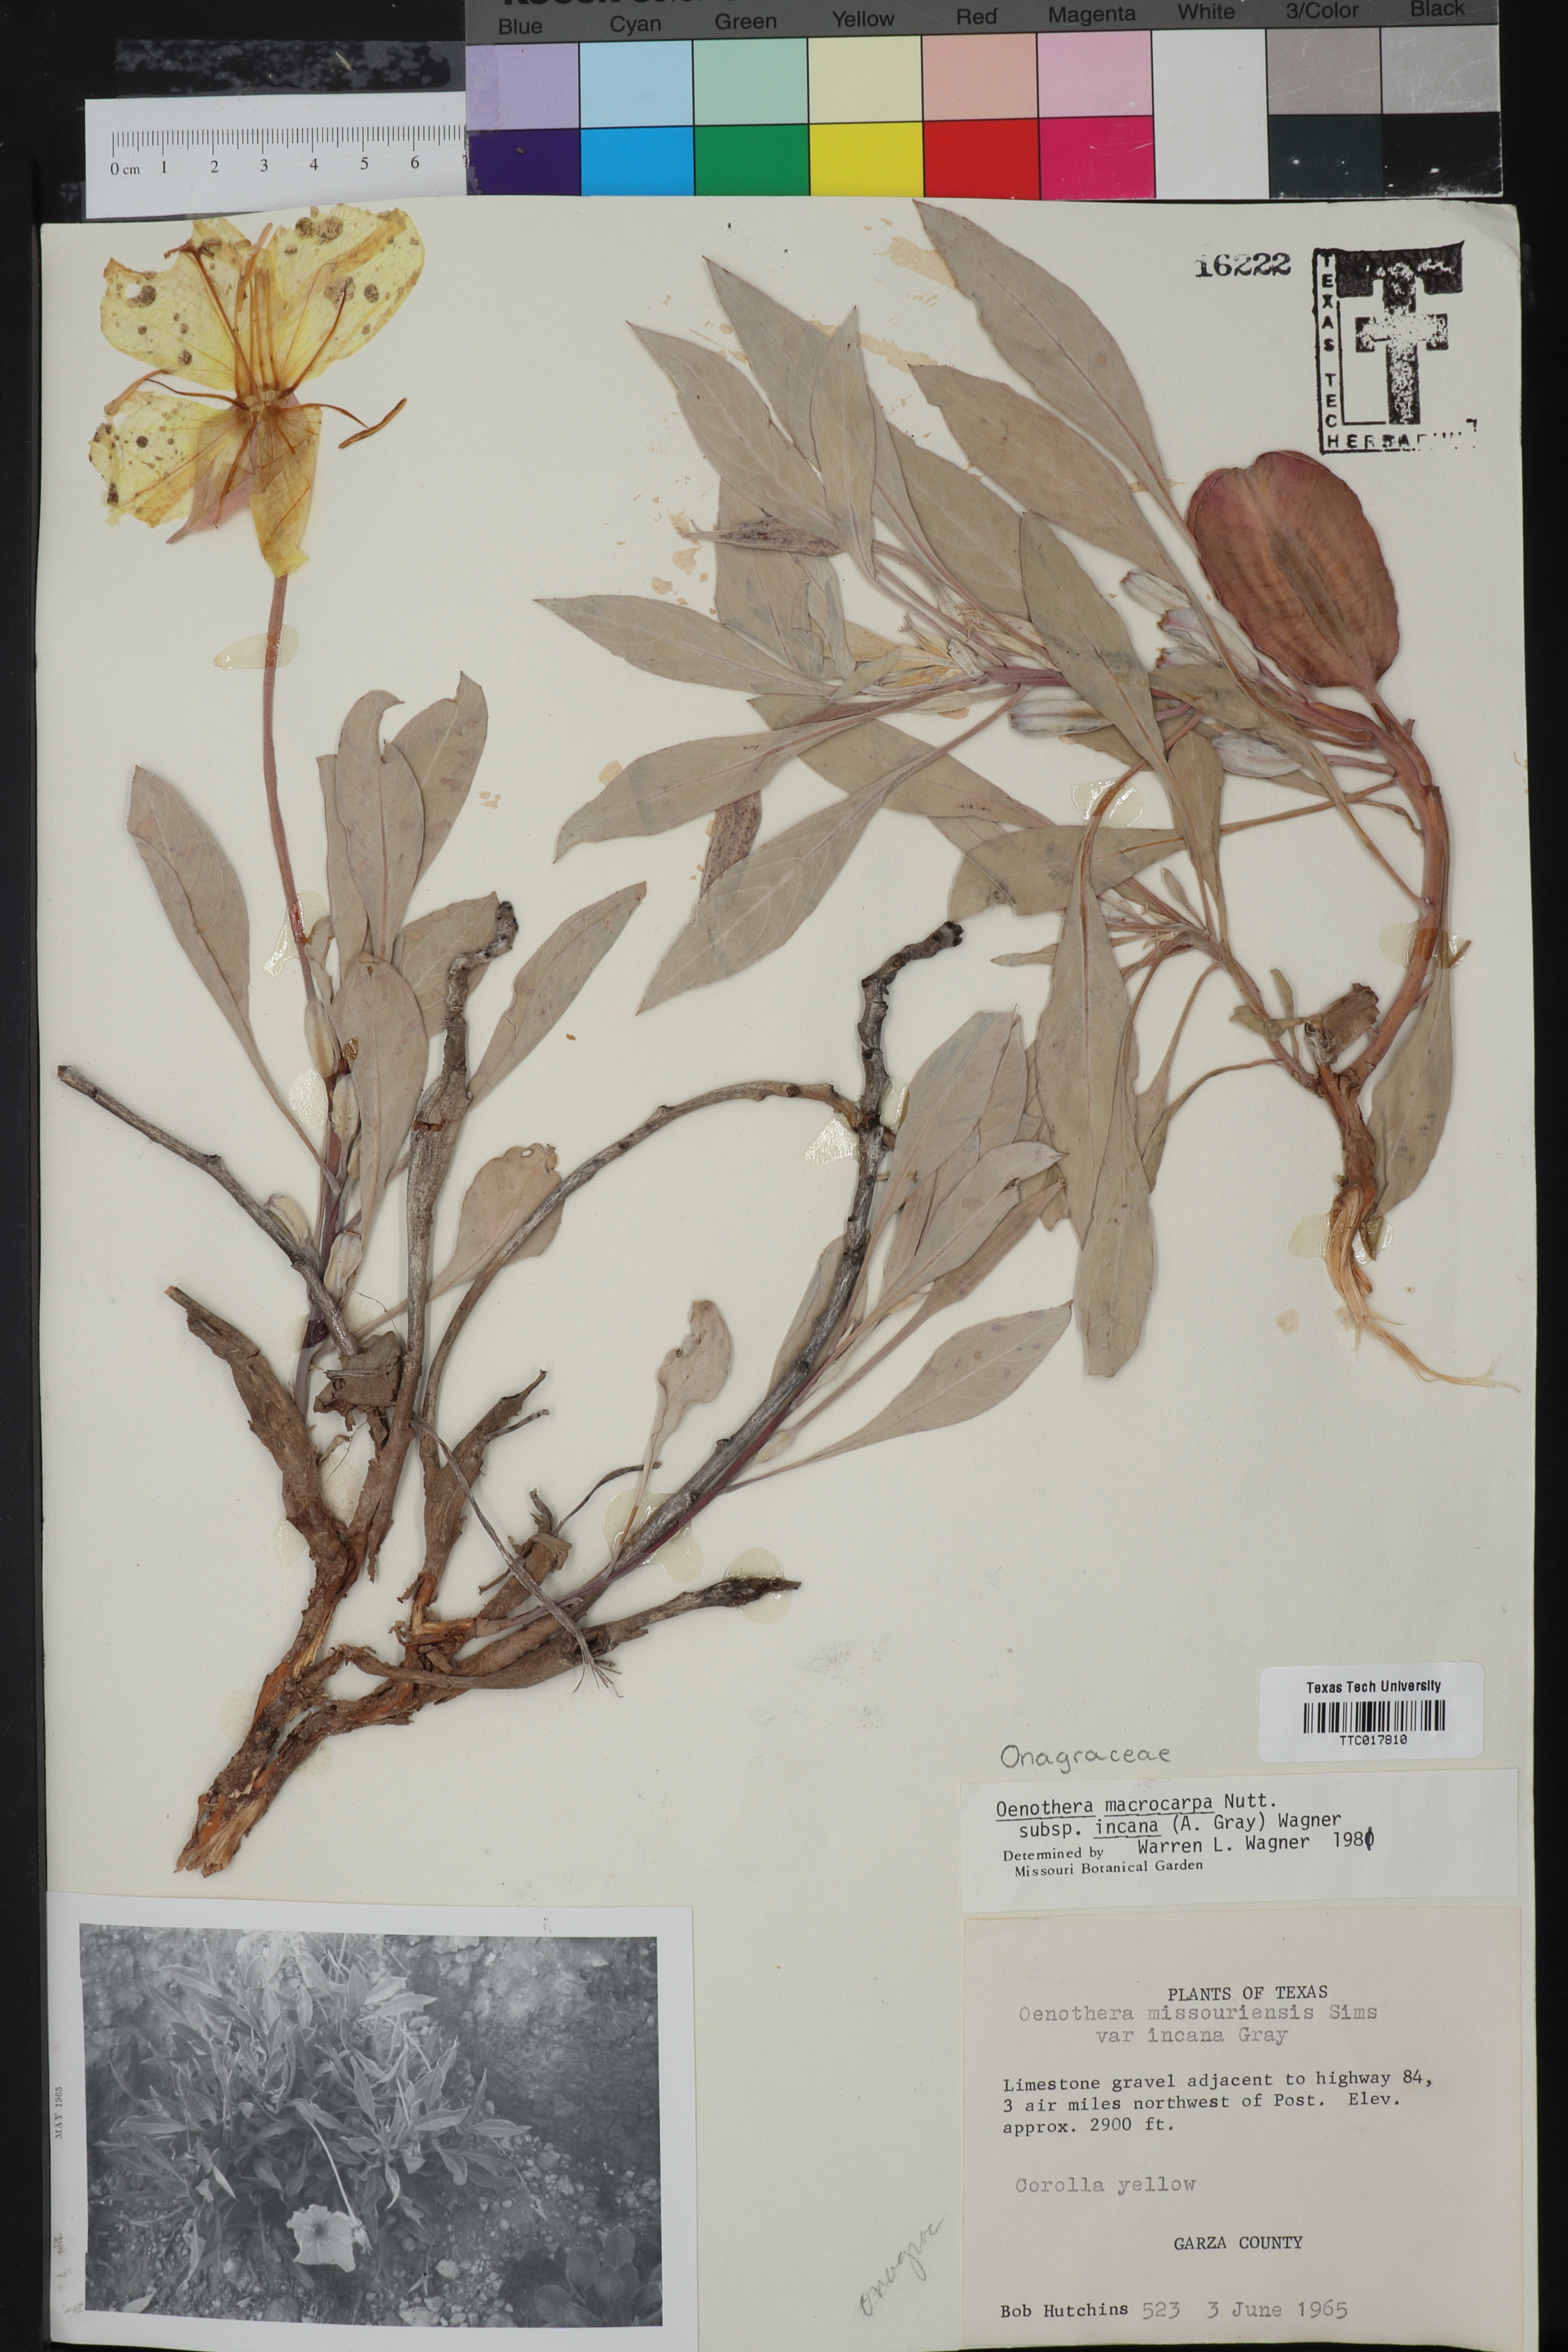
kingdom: Plantae
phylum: Tracheophyta
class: Magnoliopsida
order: Myrtales
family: Onagraceae
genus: Oenothera
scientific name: Oenothera macrocarpa
